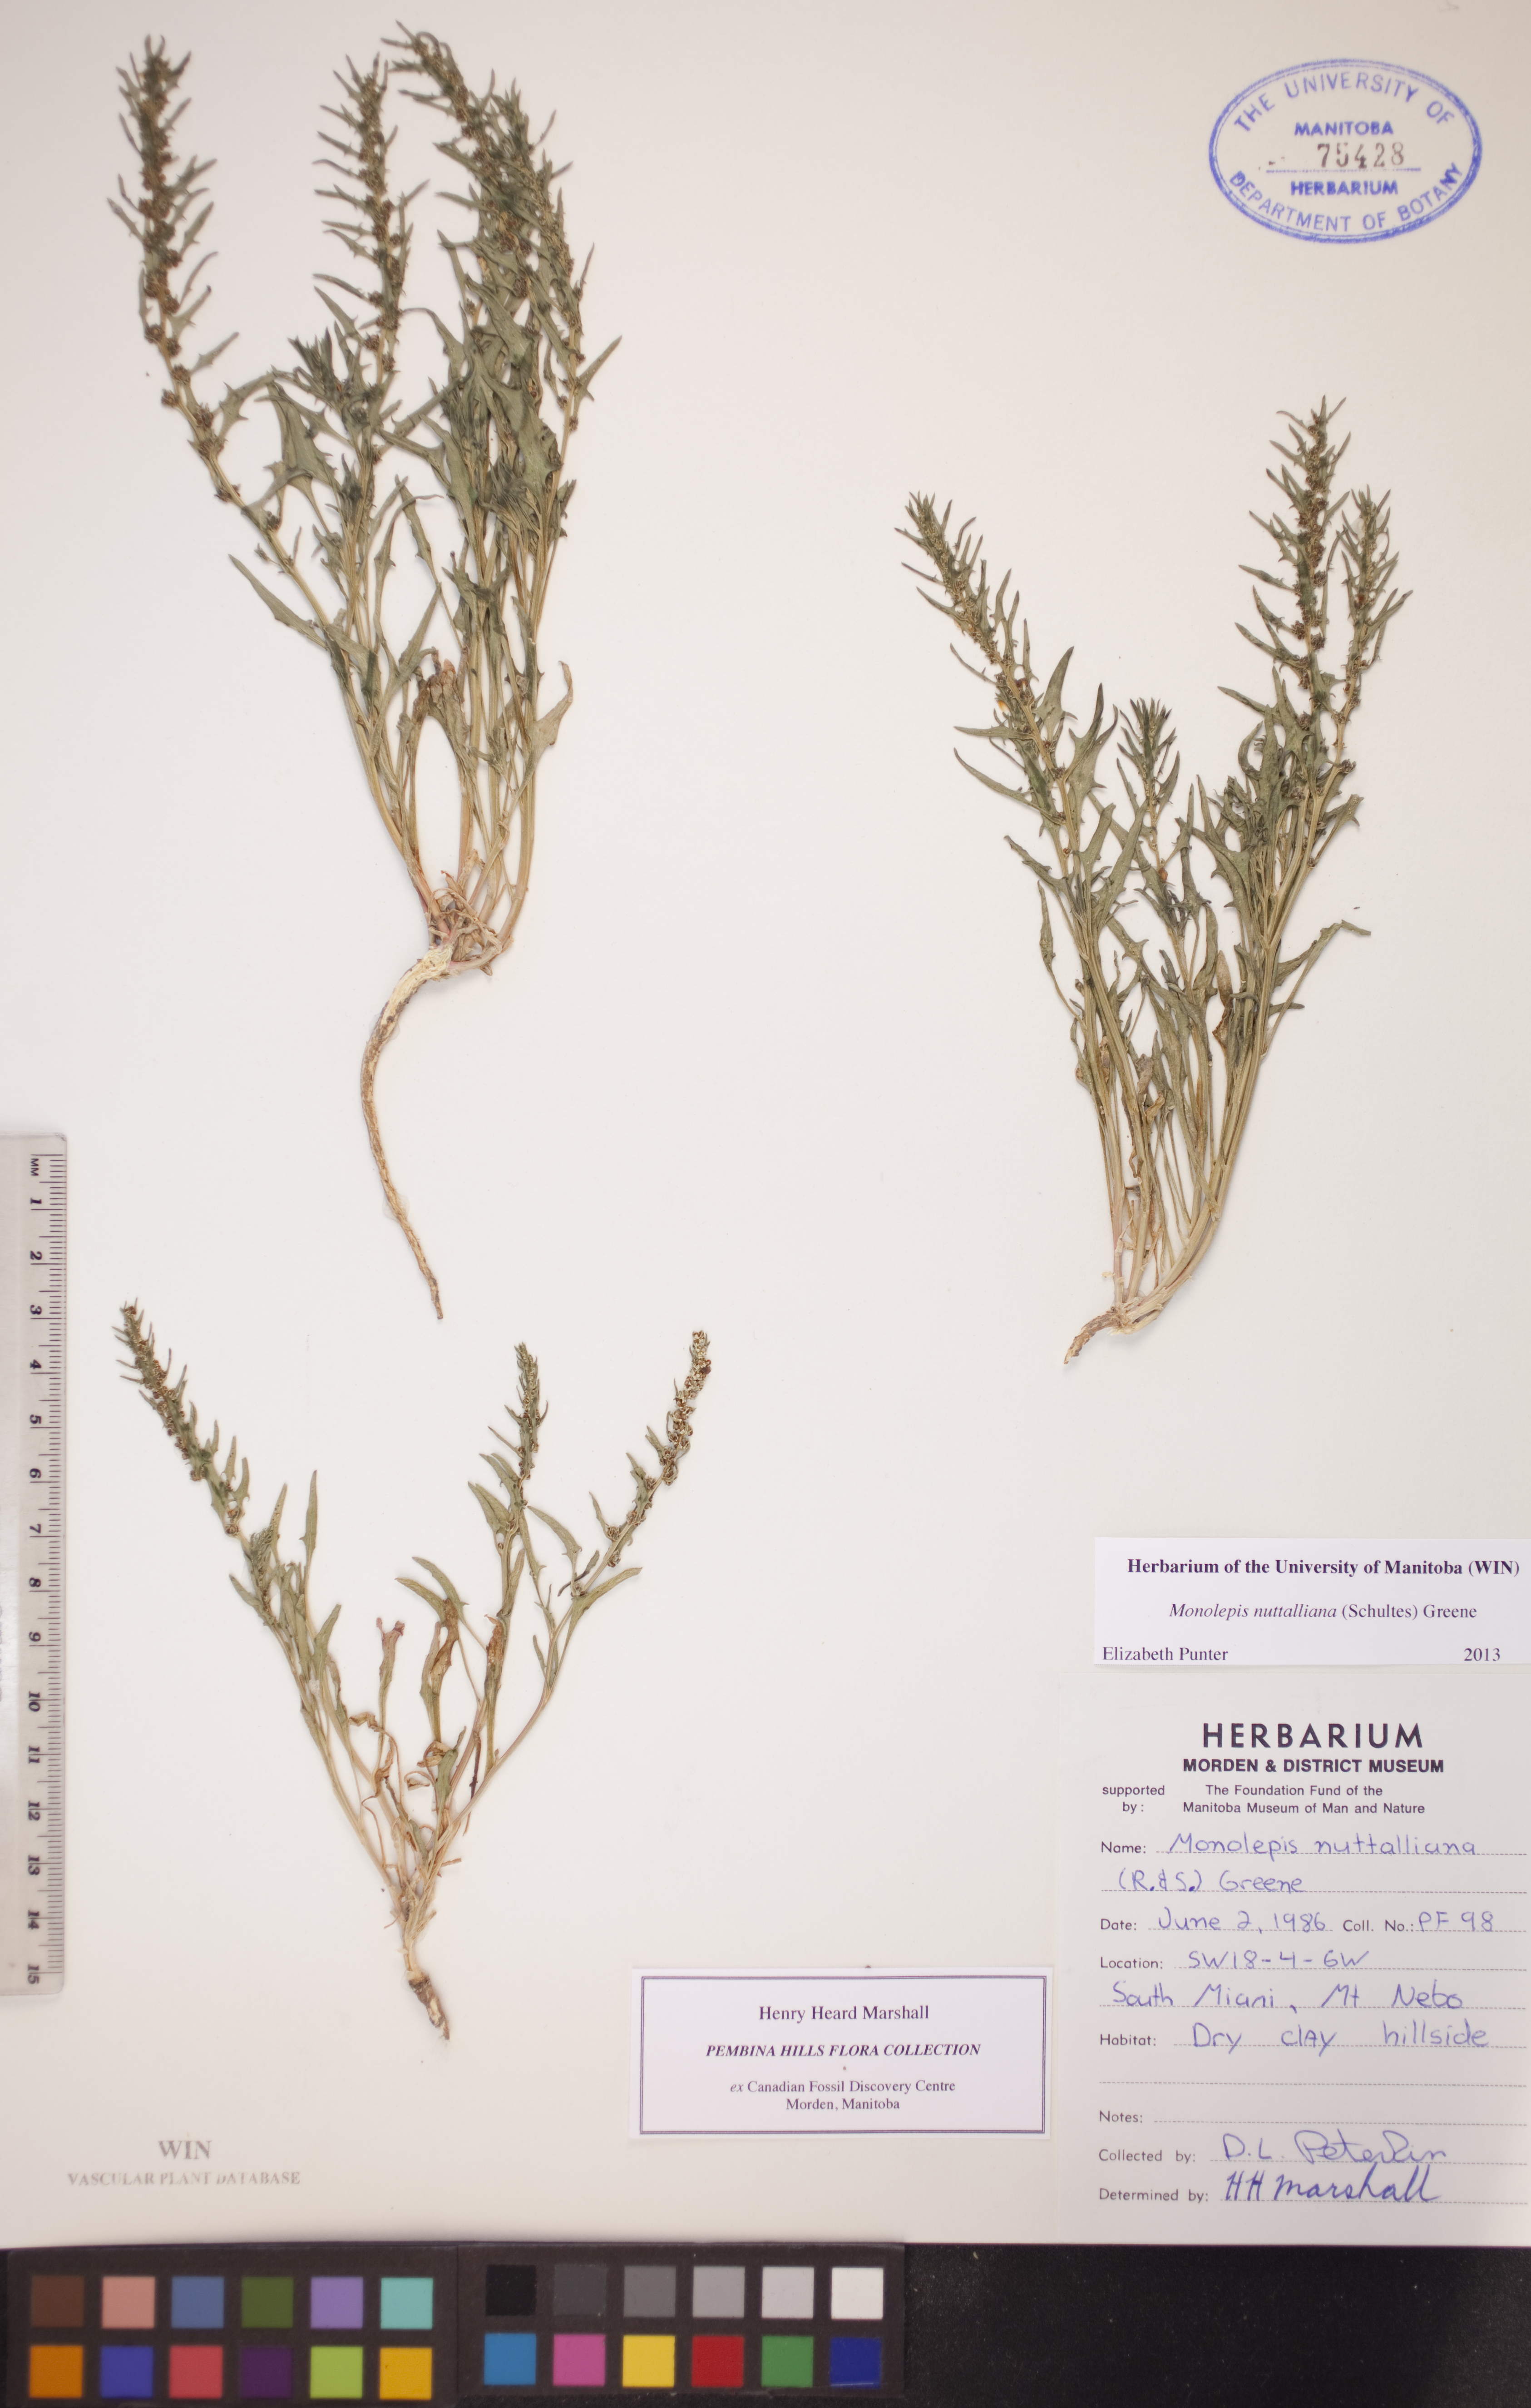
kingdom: Plantae
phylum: Tracheophyta
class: Magnoliopsida
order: Caryophyllales
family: Amaranthaceae
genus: Blitum
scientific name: Blitum nuttallianum
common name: Poverty-weed
